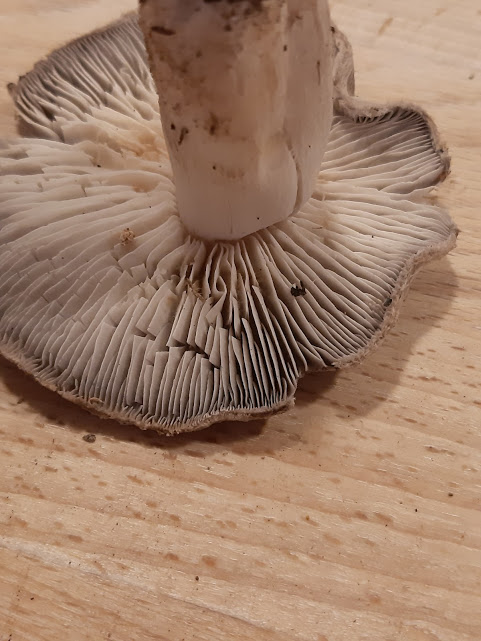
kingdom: Fungi
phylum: Basidiomycota
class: Agaricomycetes
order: Agaricales
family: Tricholomataceae
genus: Tricholoma
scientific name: Tricholoma terreum
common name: jordfarvet ridderhat
